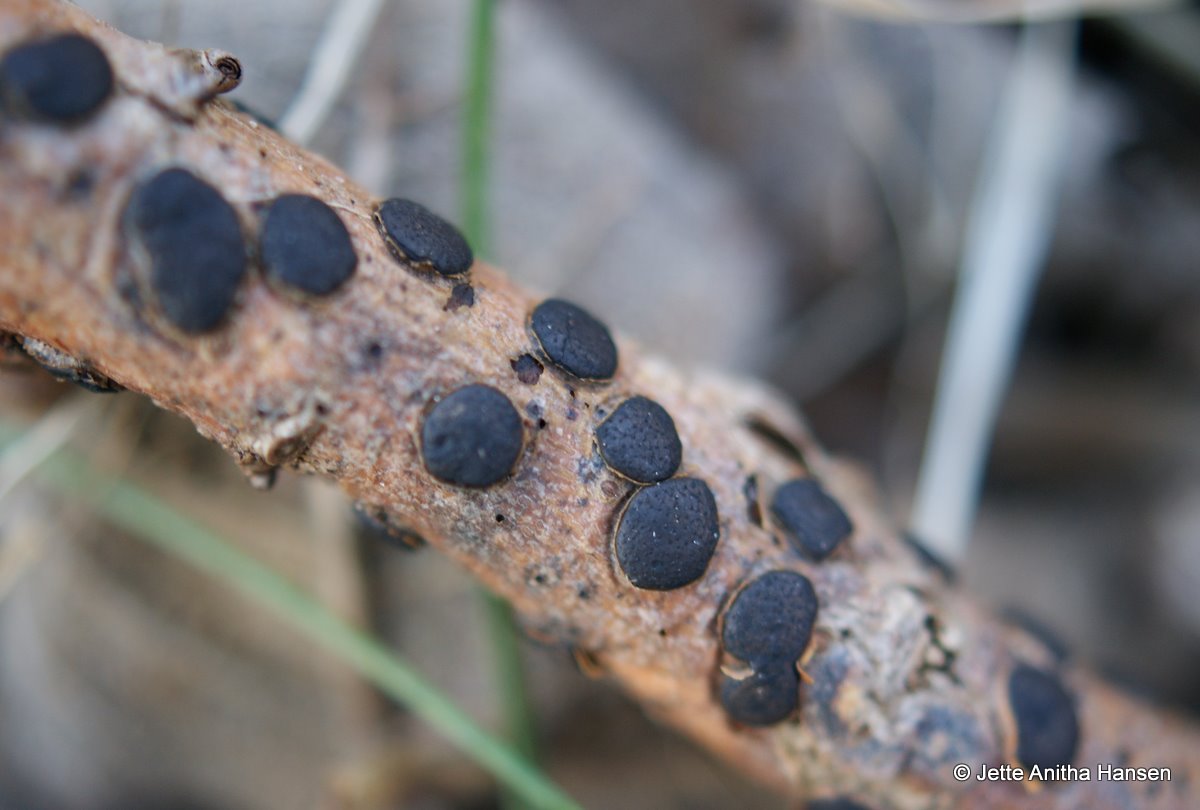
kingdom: Fungi
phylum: Ascomycota
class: Sordariomycetes
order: Xylariales
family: Diatrypaceae
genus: Diatrype
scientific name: Diatrype bullata
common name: pile-kulskorpe
